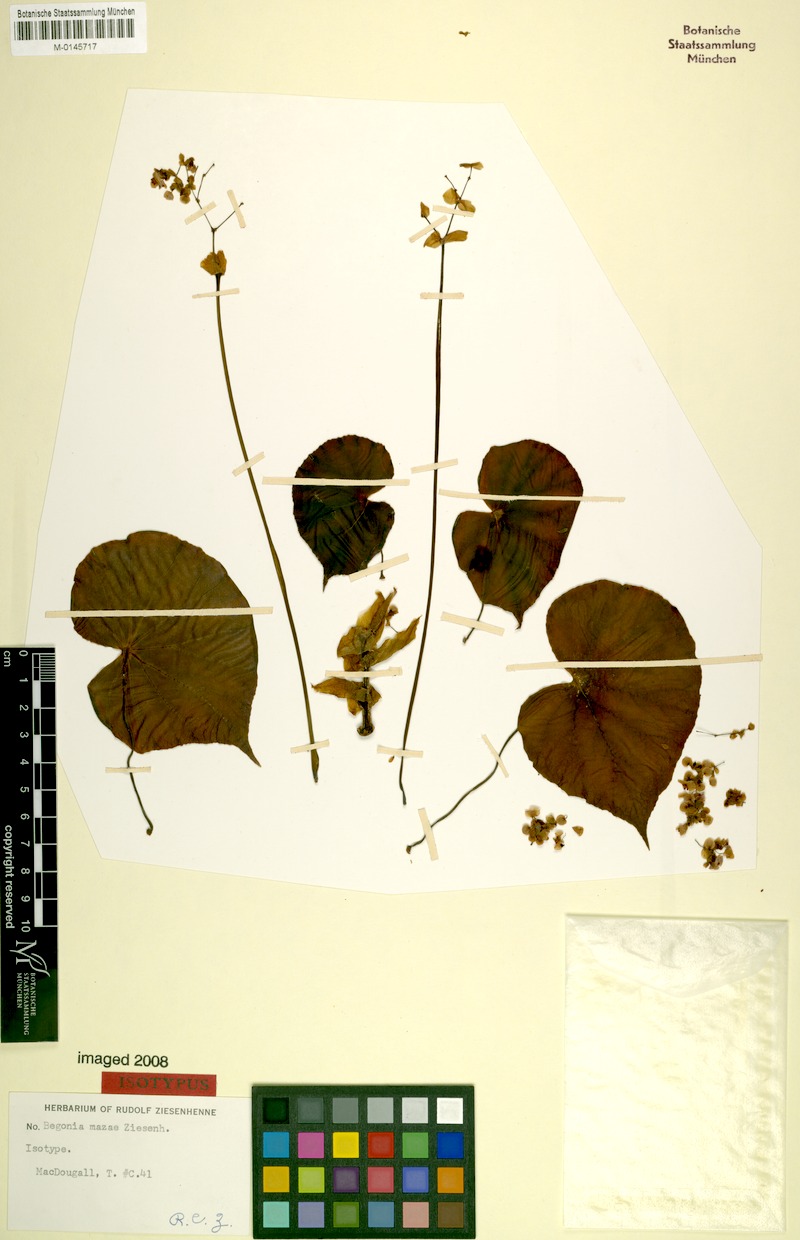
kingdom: Plantae
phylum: Tracheophyta
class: Magnoliopsida
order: Cucurbitales
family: Begoniaceae
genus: Begonia
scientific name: Begonia mazae
